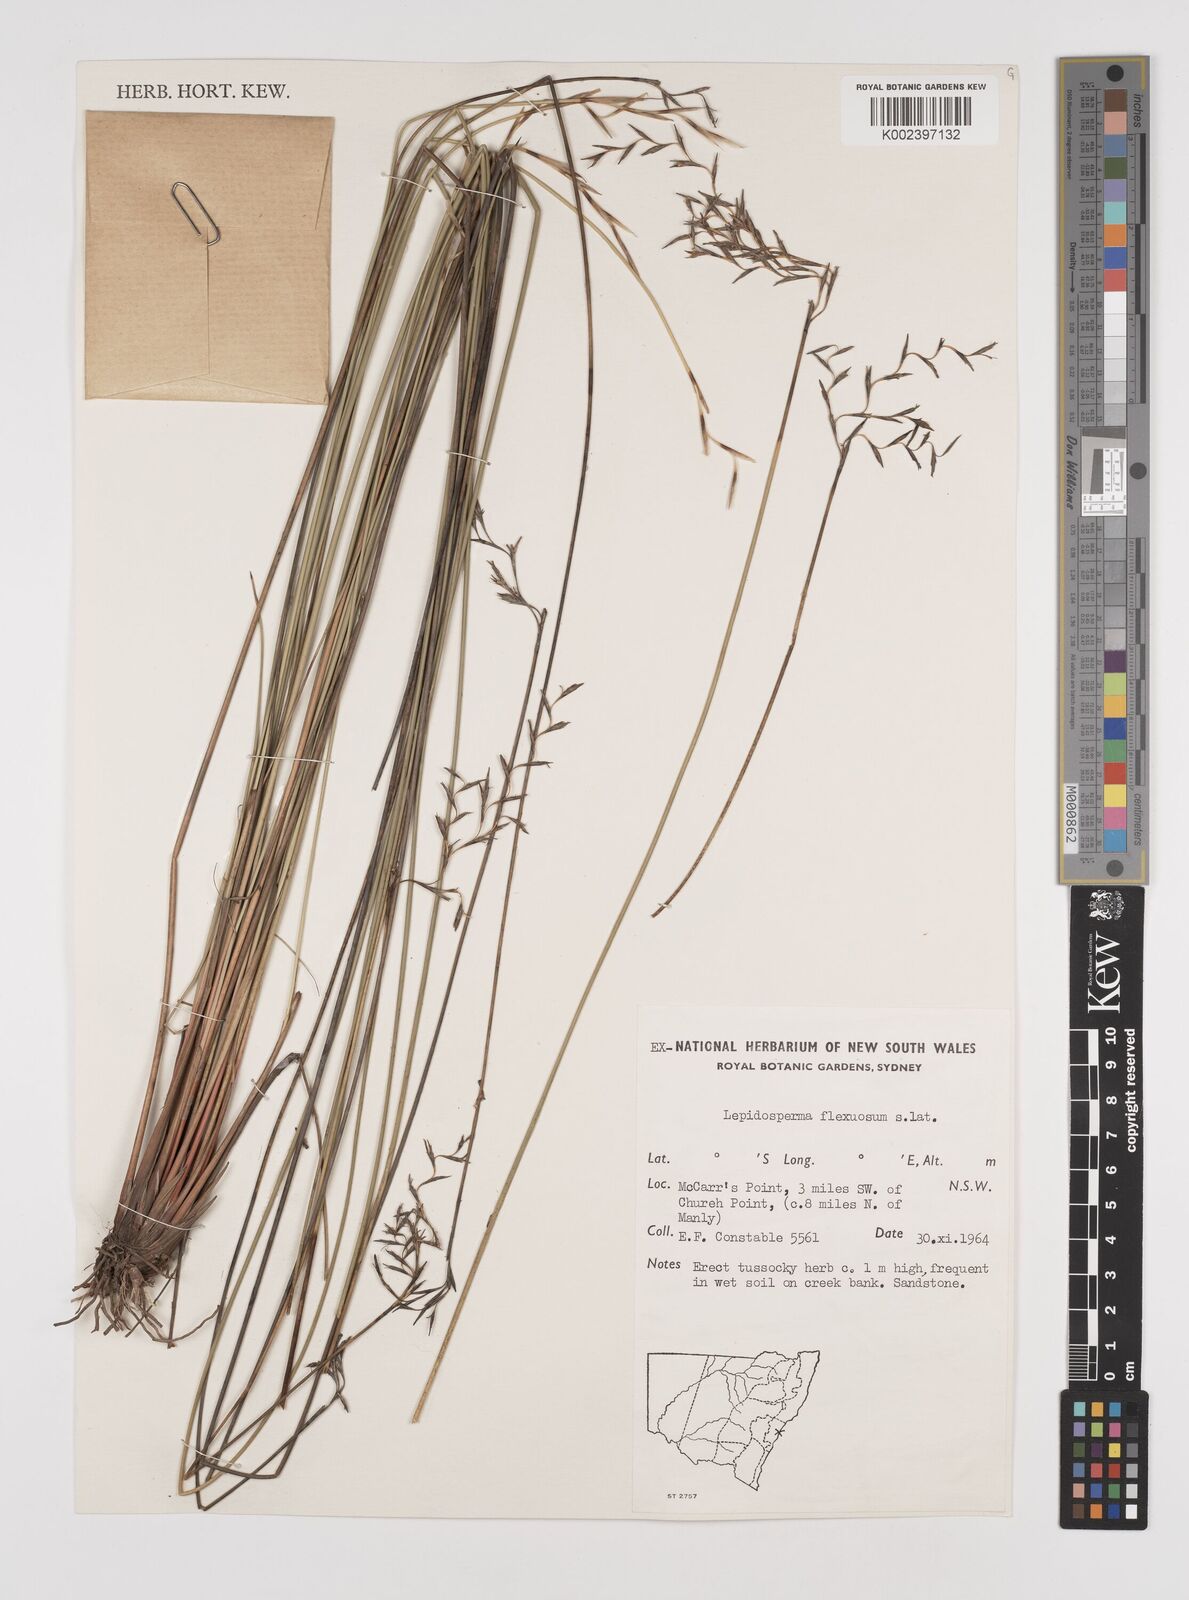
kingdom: Plantae
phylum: Tracheophyta
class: Liliopsida
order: Poales
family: Cyperaceae
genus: Lepidosperma
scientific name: Lepidosperma flexuosum
